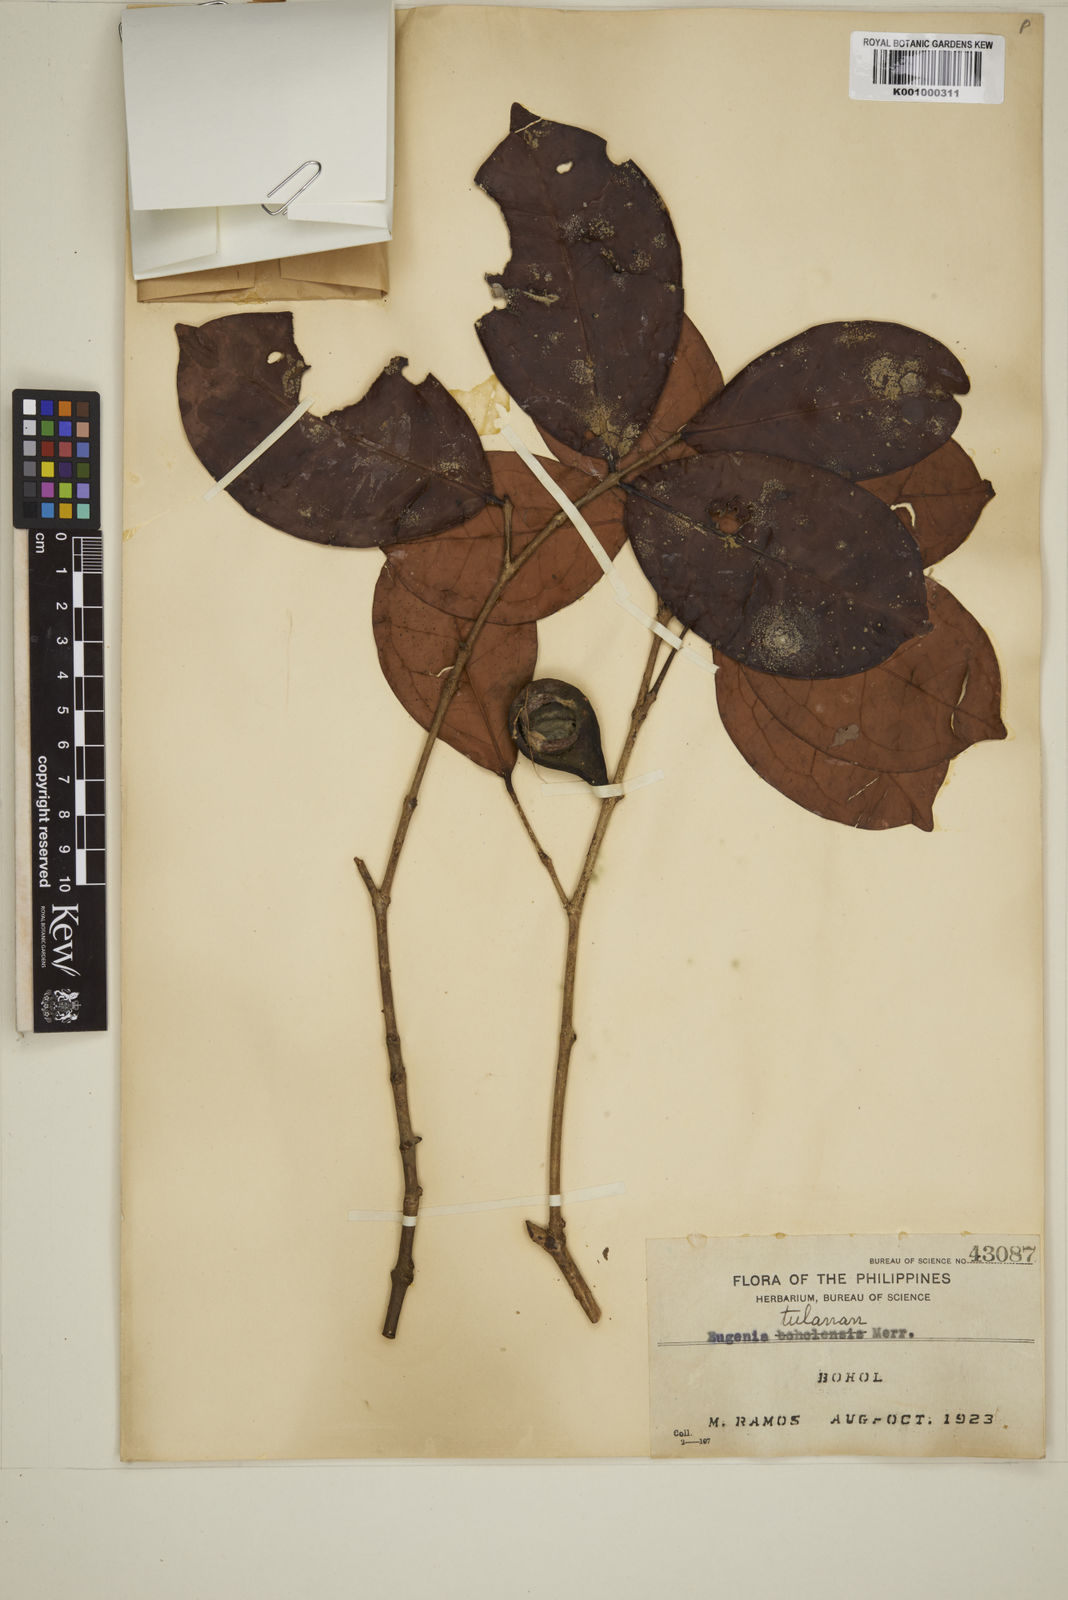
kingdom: Plantae
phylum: Tracheophyta
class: Magnoliopsida
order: Myrtales
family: Myrtaceae
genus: Eugenia
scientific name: Eugenia tulanan
